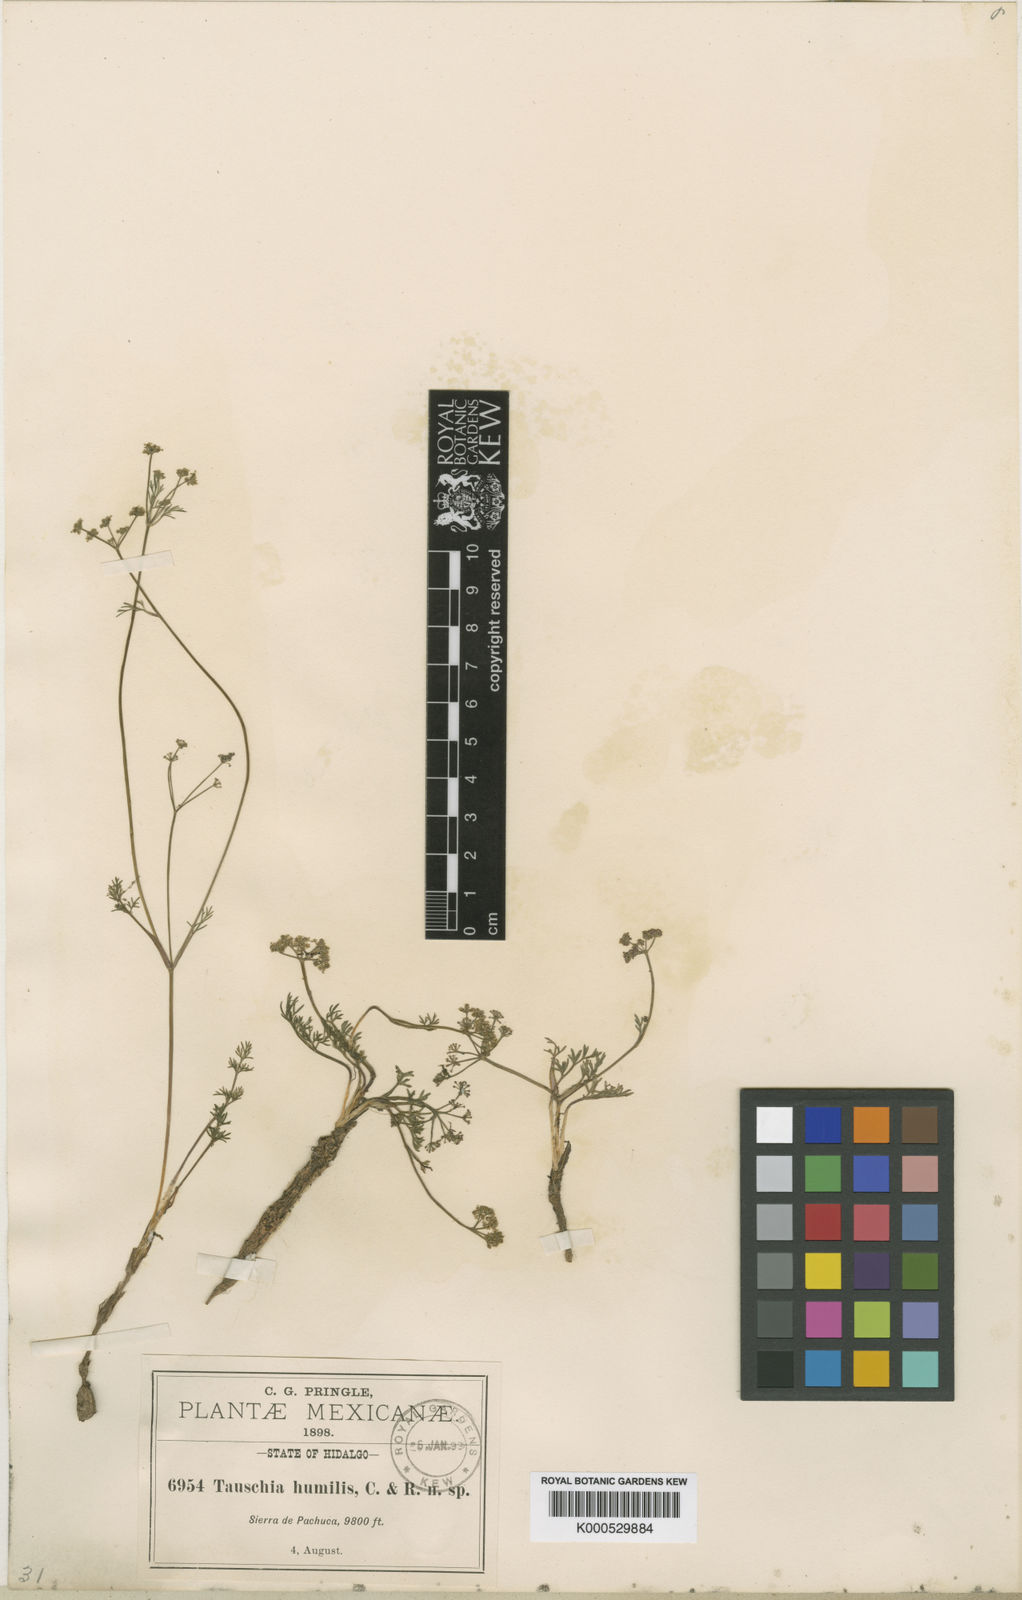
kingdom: Plantae
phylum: Tracheophyta
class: Magnoliopsida
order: Apiales
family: Apiaceae
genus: Tauschia
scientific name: Tauschia humilis
